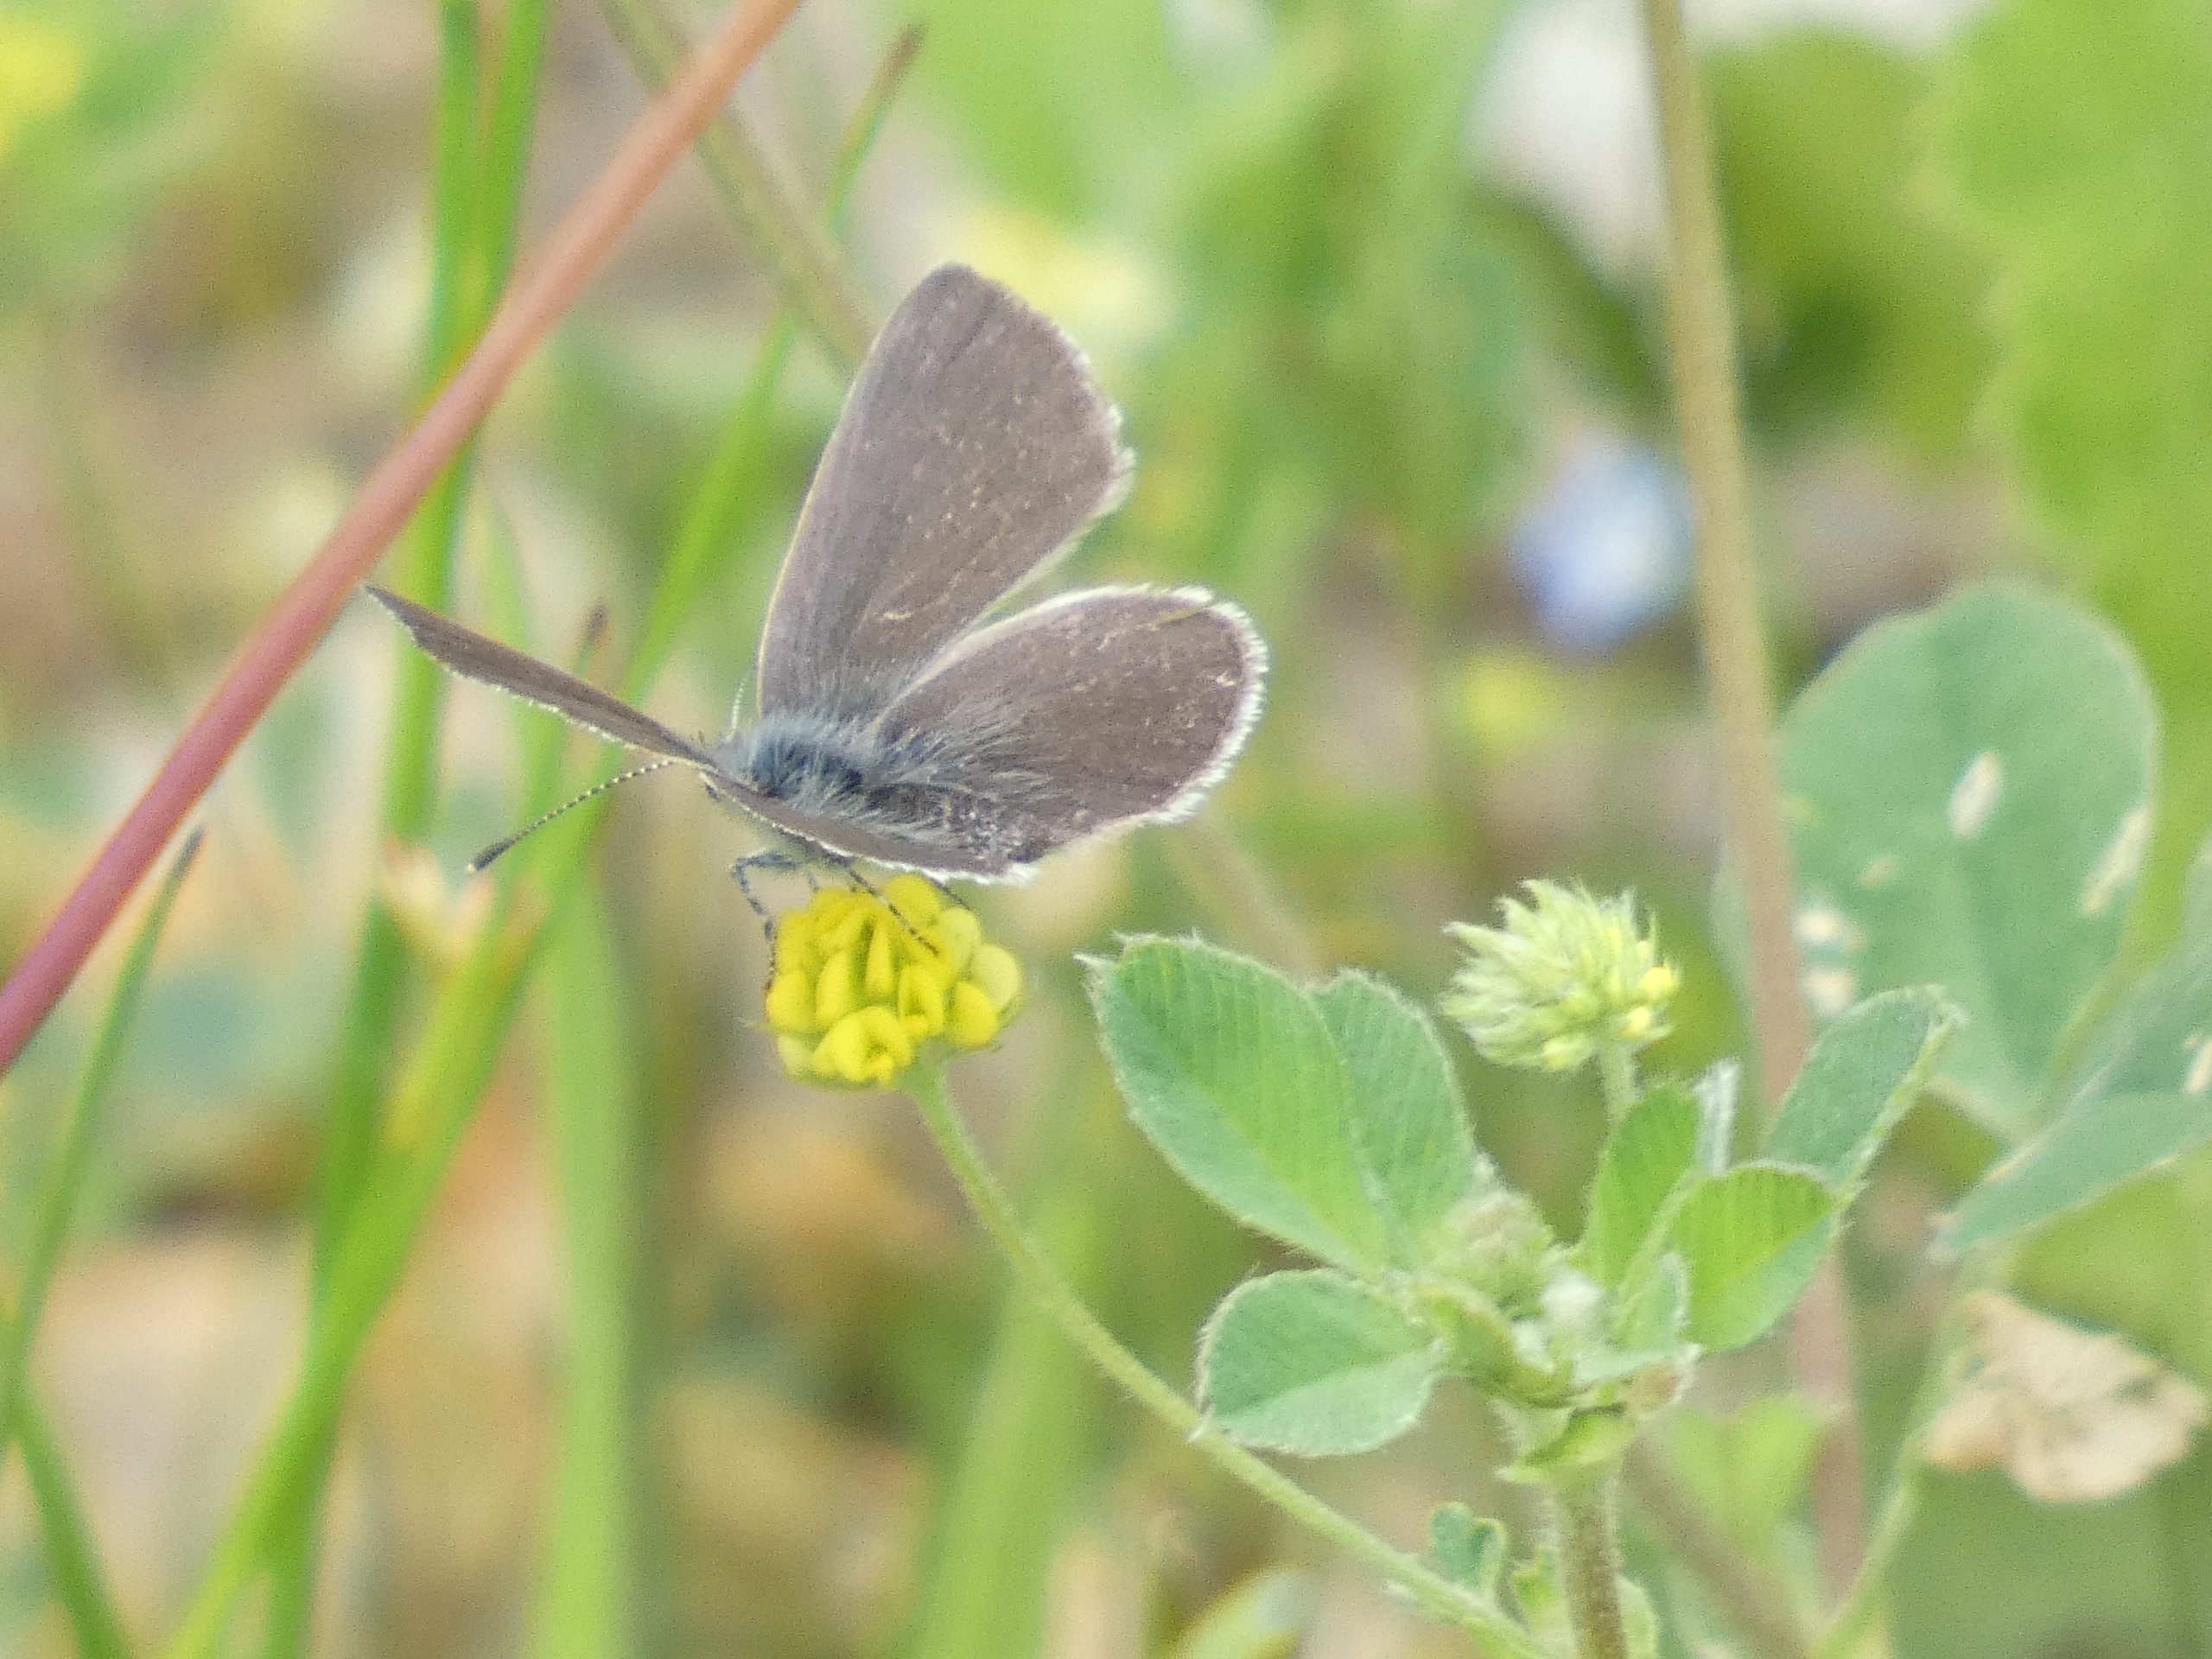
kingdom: Animalia
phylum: Arthropoda
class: Insecta
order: Lepidoptera
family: Lycaenidae
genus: Cupido
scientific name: Cupido minimus
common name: Dværgblåfugl
